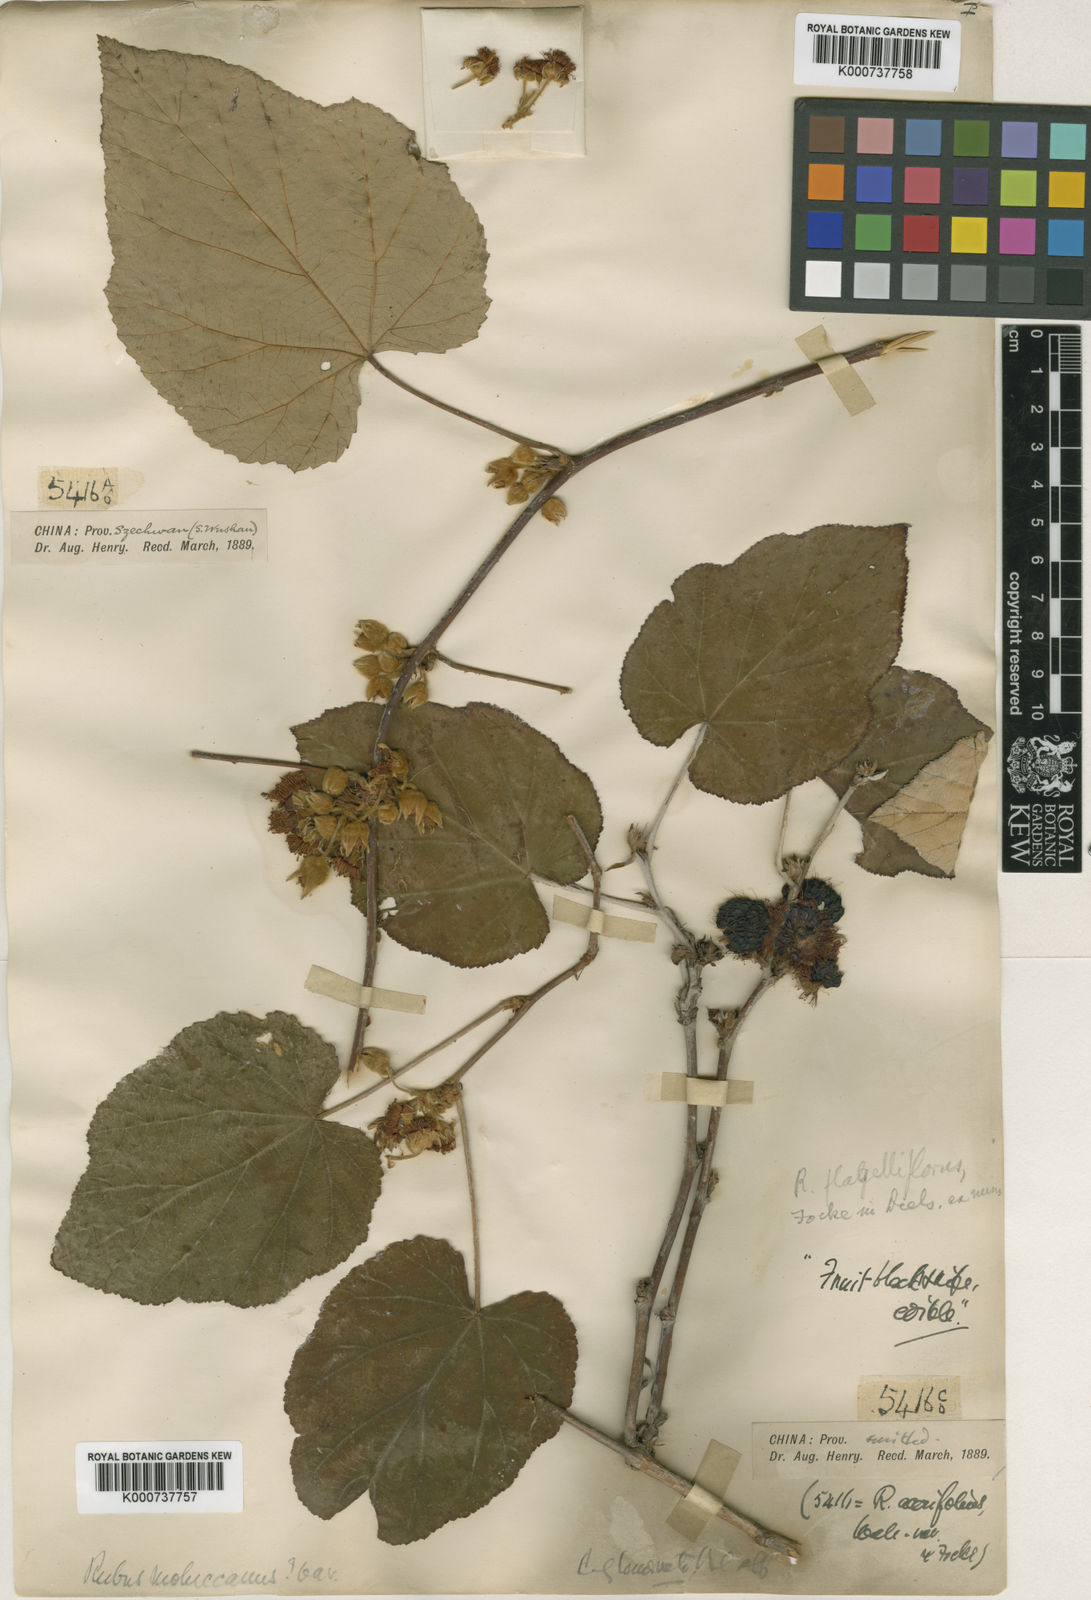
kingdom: Plantae
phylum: Tracheophyta
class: Magnoliopsida
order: Rosales
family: Rosaceae
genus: Rubus
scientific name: Rubus
